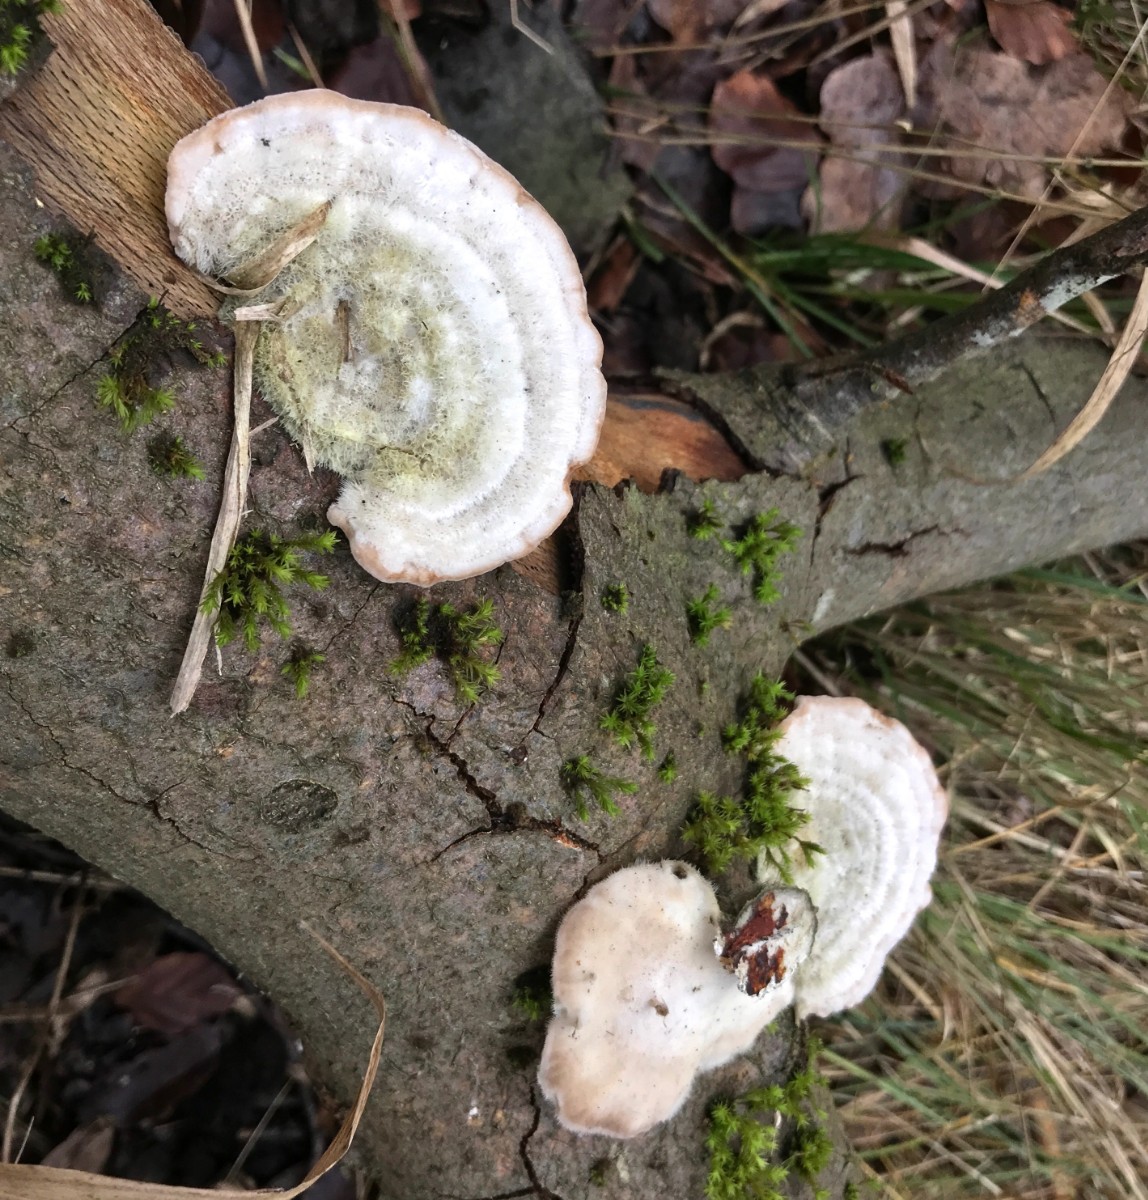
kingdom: Fungi
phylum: Basidiomycota
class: Agaricomycetes
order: Polyporales
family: Polyporaceae
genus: Trametes
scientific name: Trametes hirsuta
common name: håret læderporesvamp
